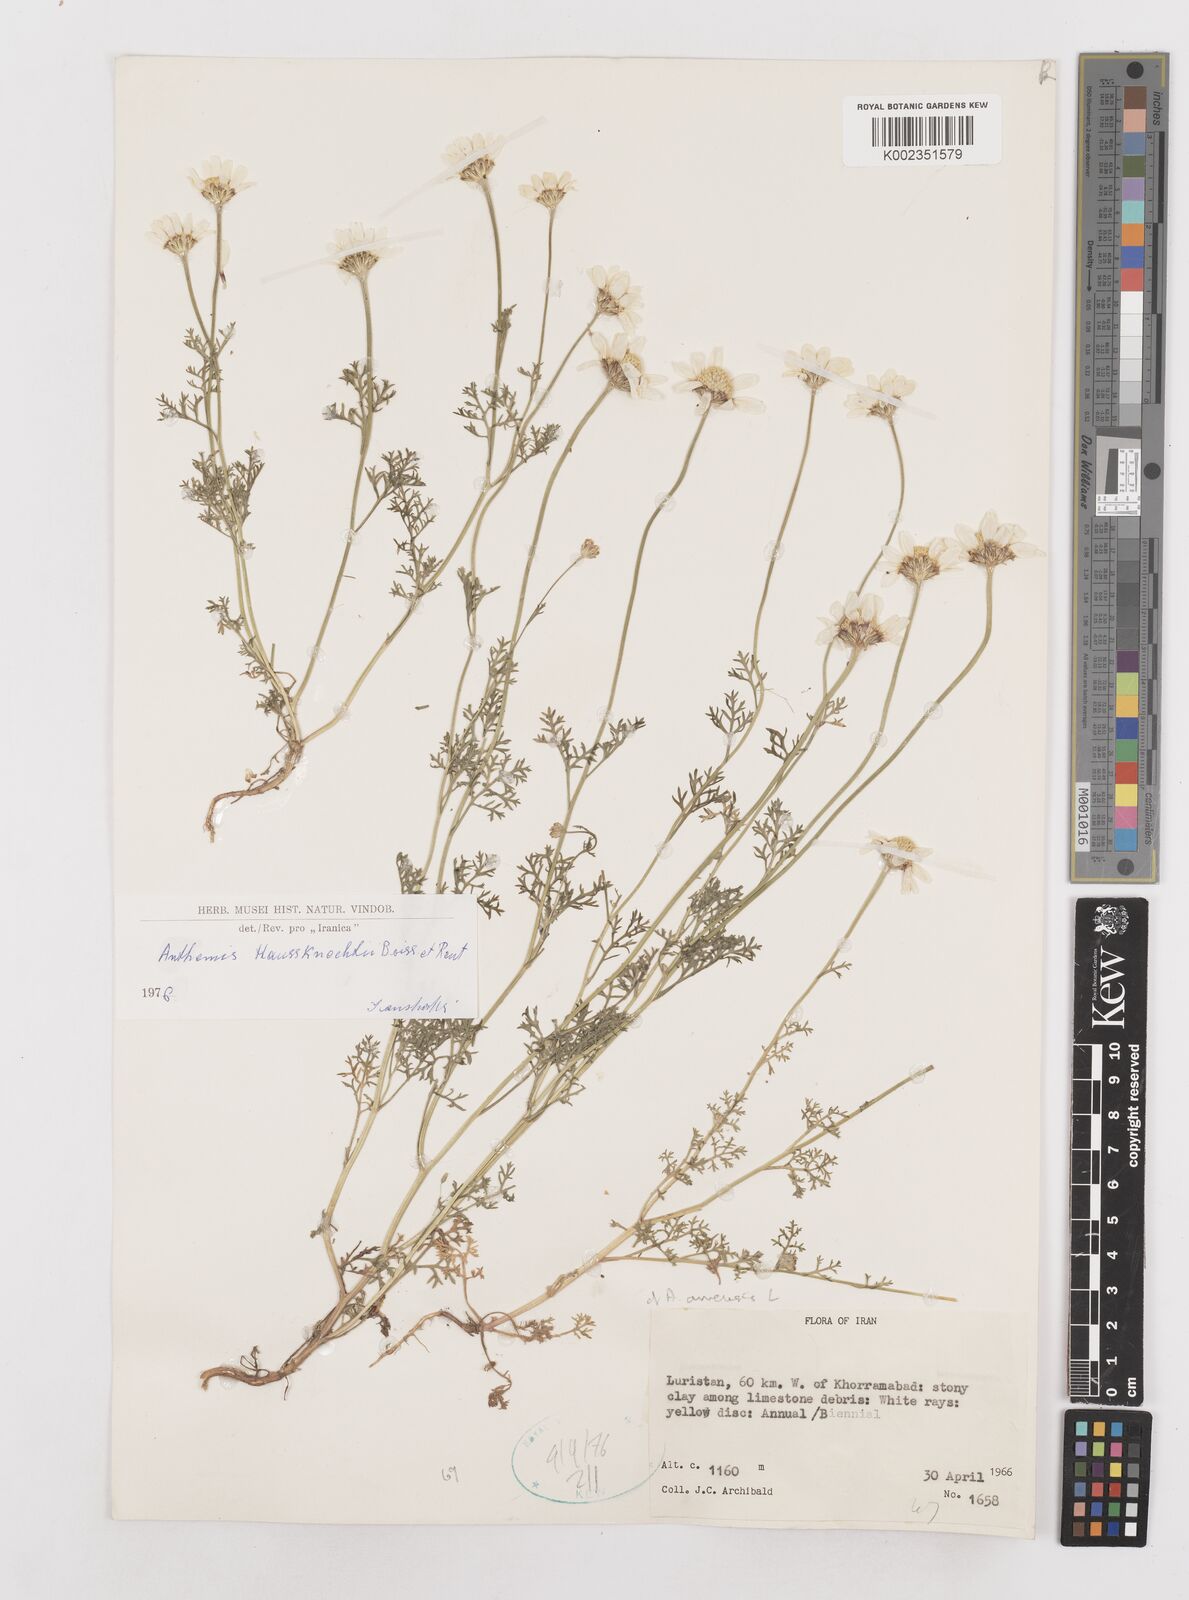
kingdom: Plantae
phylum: Tracheophyta
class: Magnoliopsida
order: Asterales
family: Asteraceae
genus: Anthemis
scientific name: Anthemis haussknechtii
